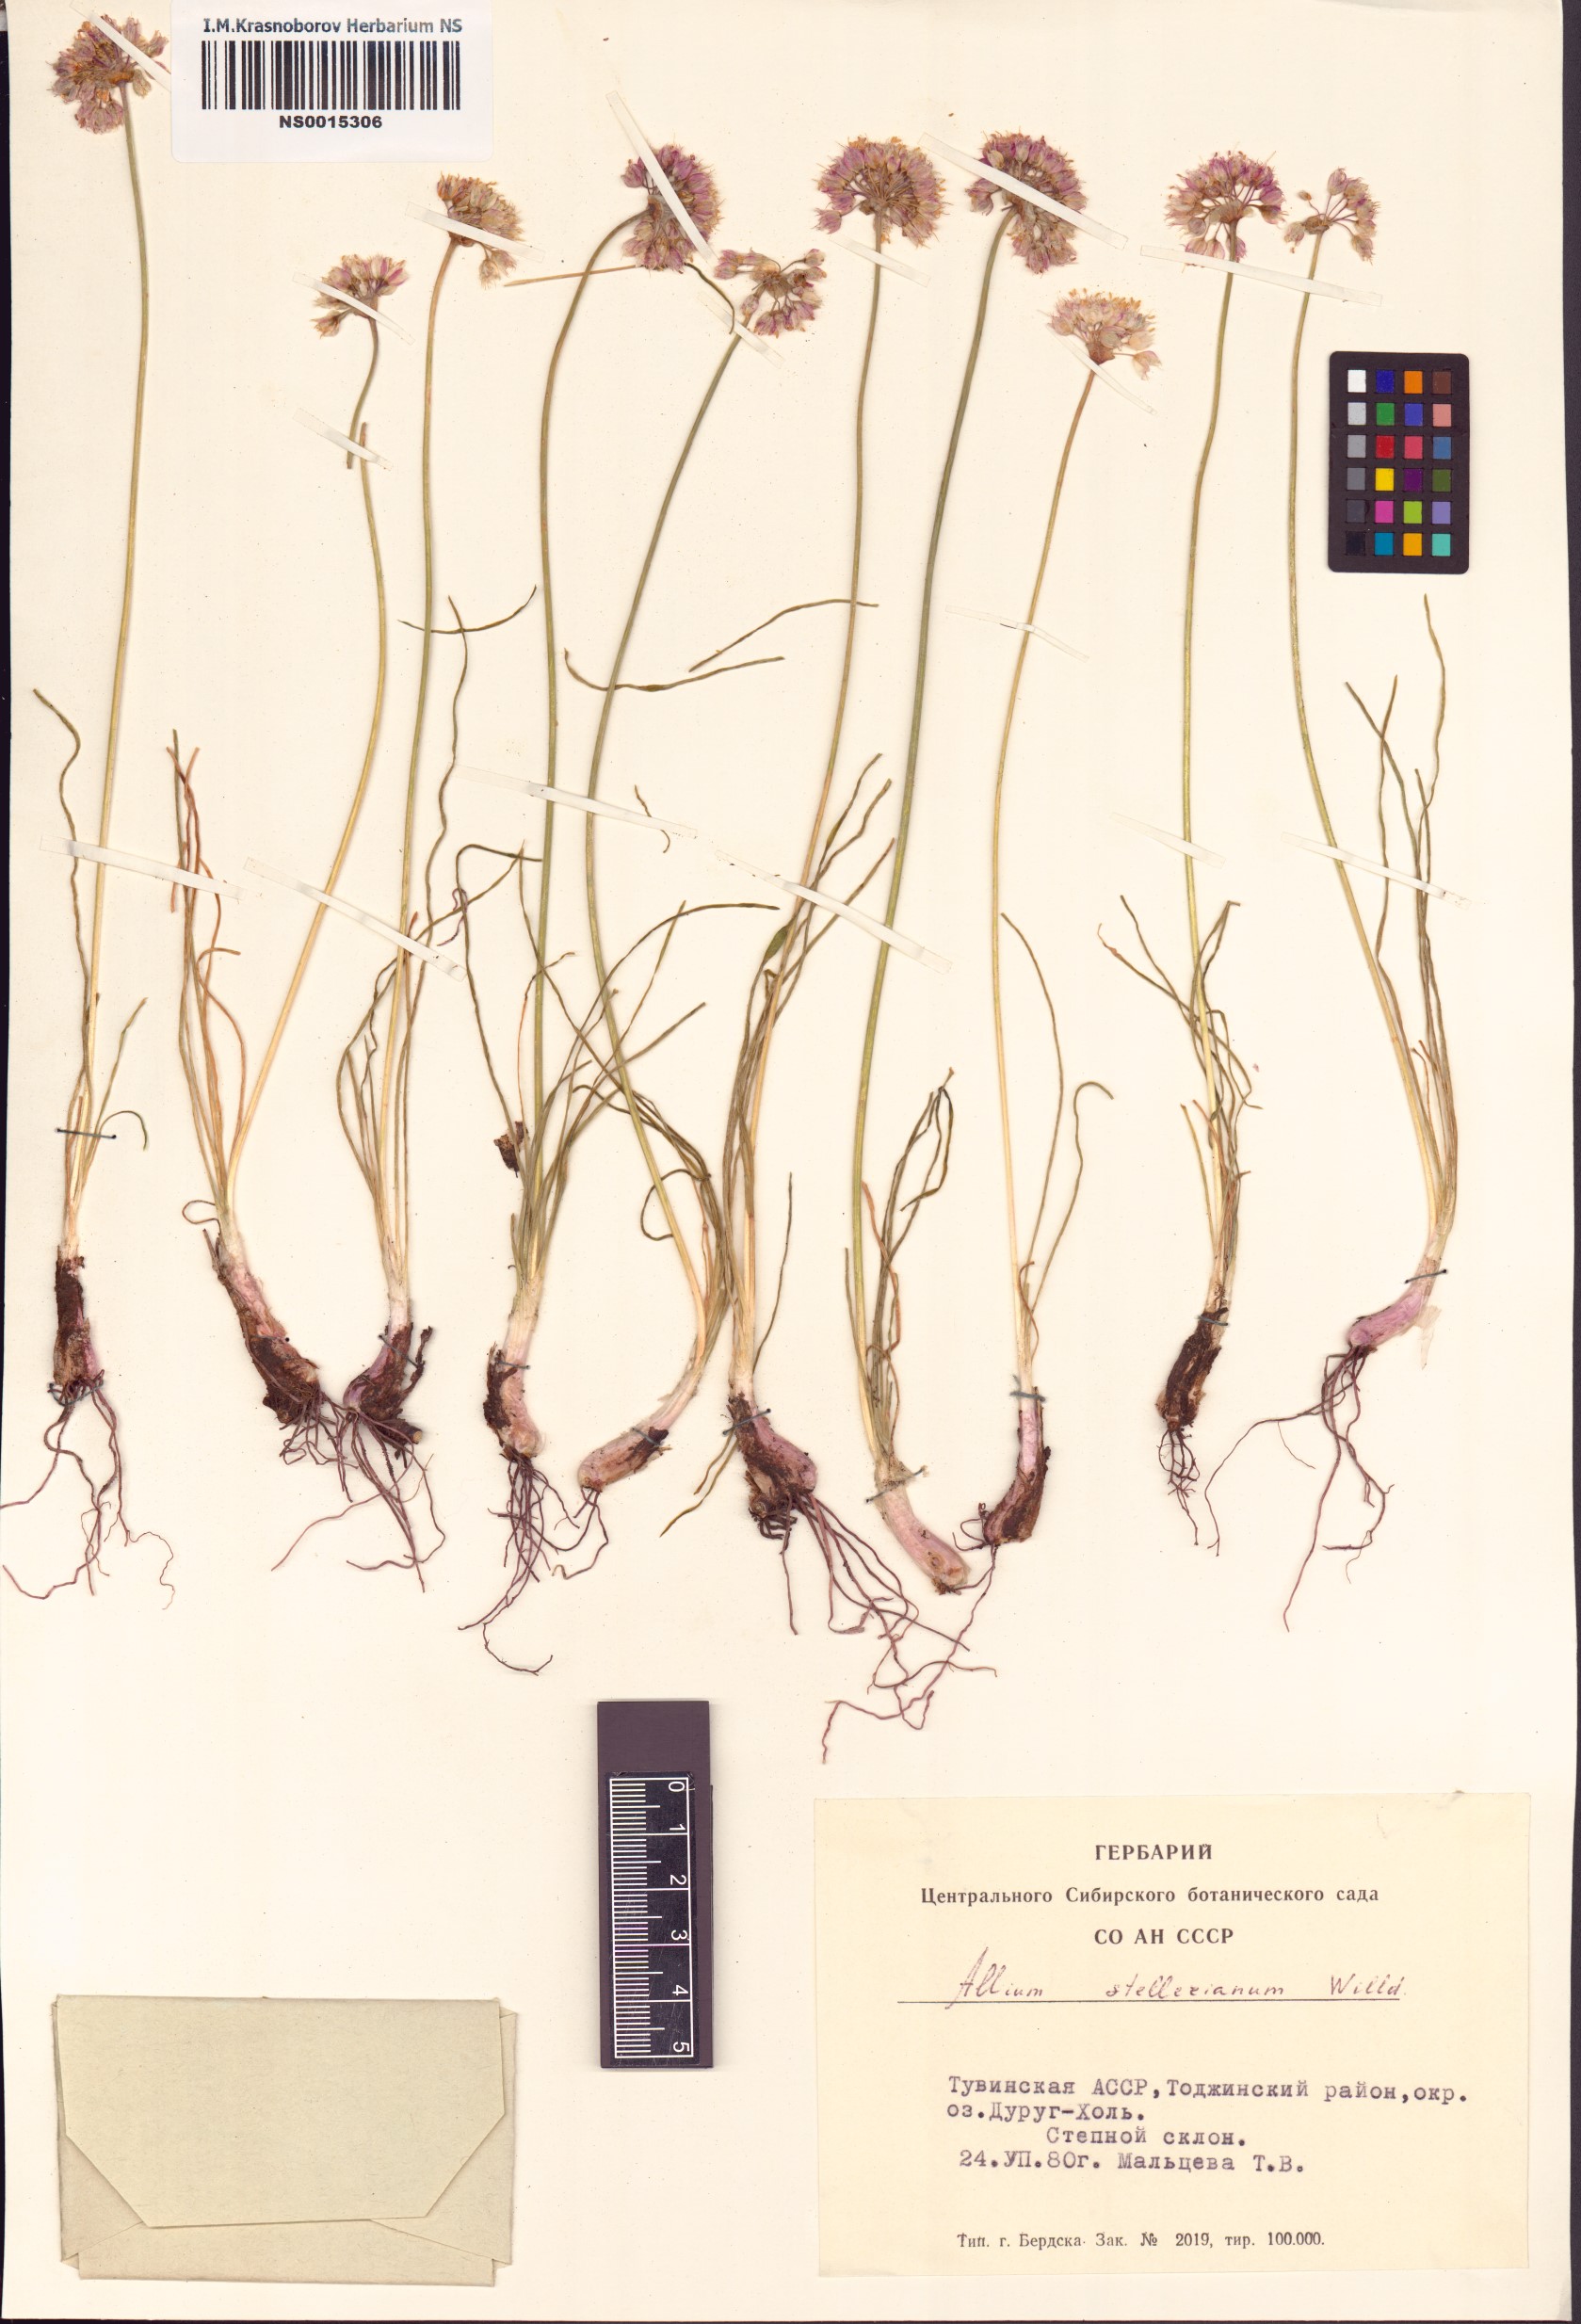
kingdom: Plantae
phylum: Tracheophyta
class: Liliopsida
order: Asparagales
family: Amaryllidaceae
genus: Allium
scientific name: Allium stellerianum
